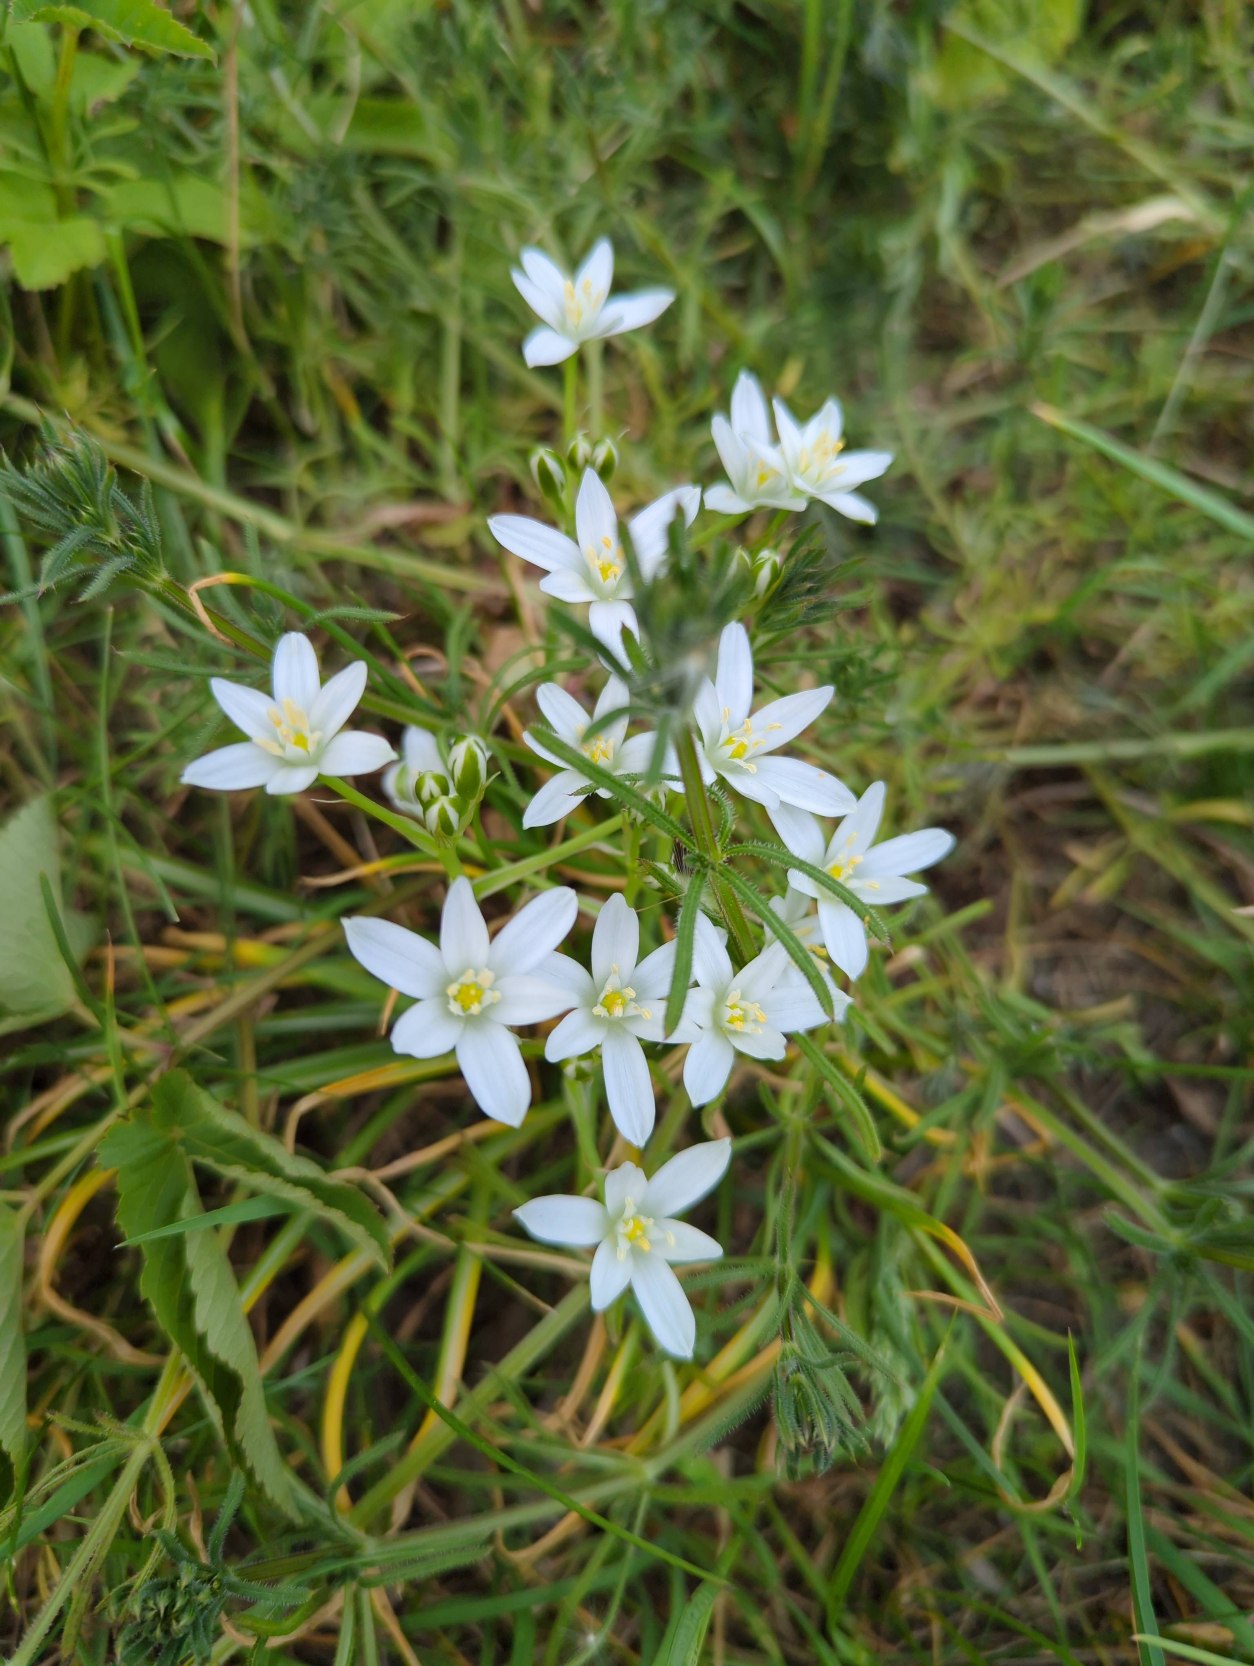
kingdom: Plantae
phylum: Tracheophyta
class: Liliopsida
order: Asparagales
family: Asparagaceae
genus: Ornithogalum
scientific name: Ornithogalum umbellatum
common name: Kost-fuglemælk
